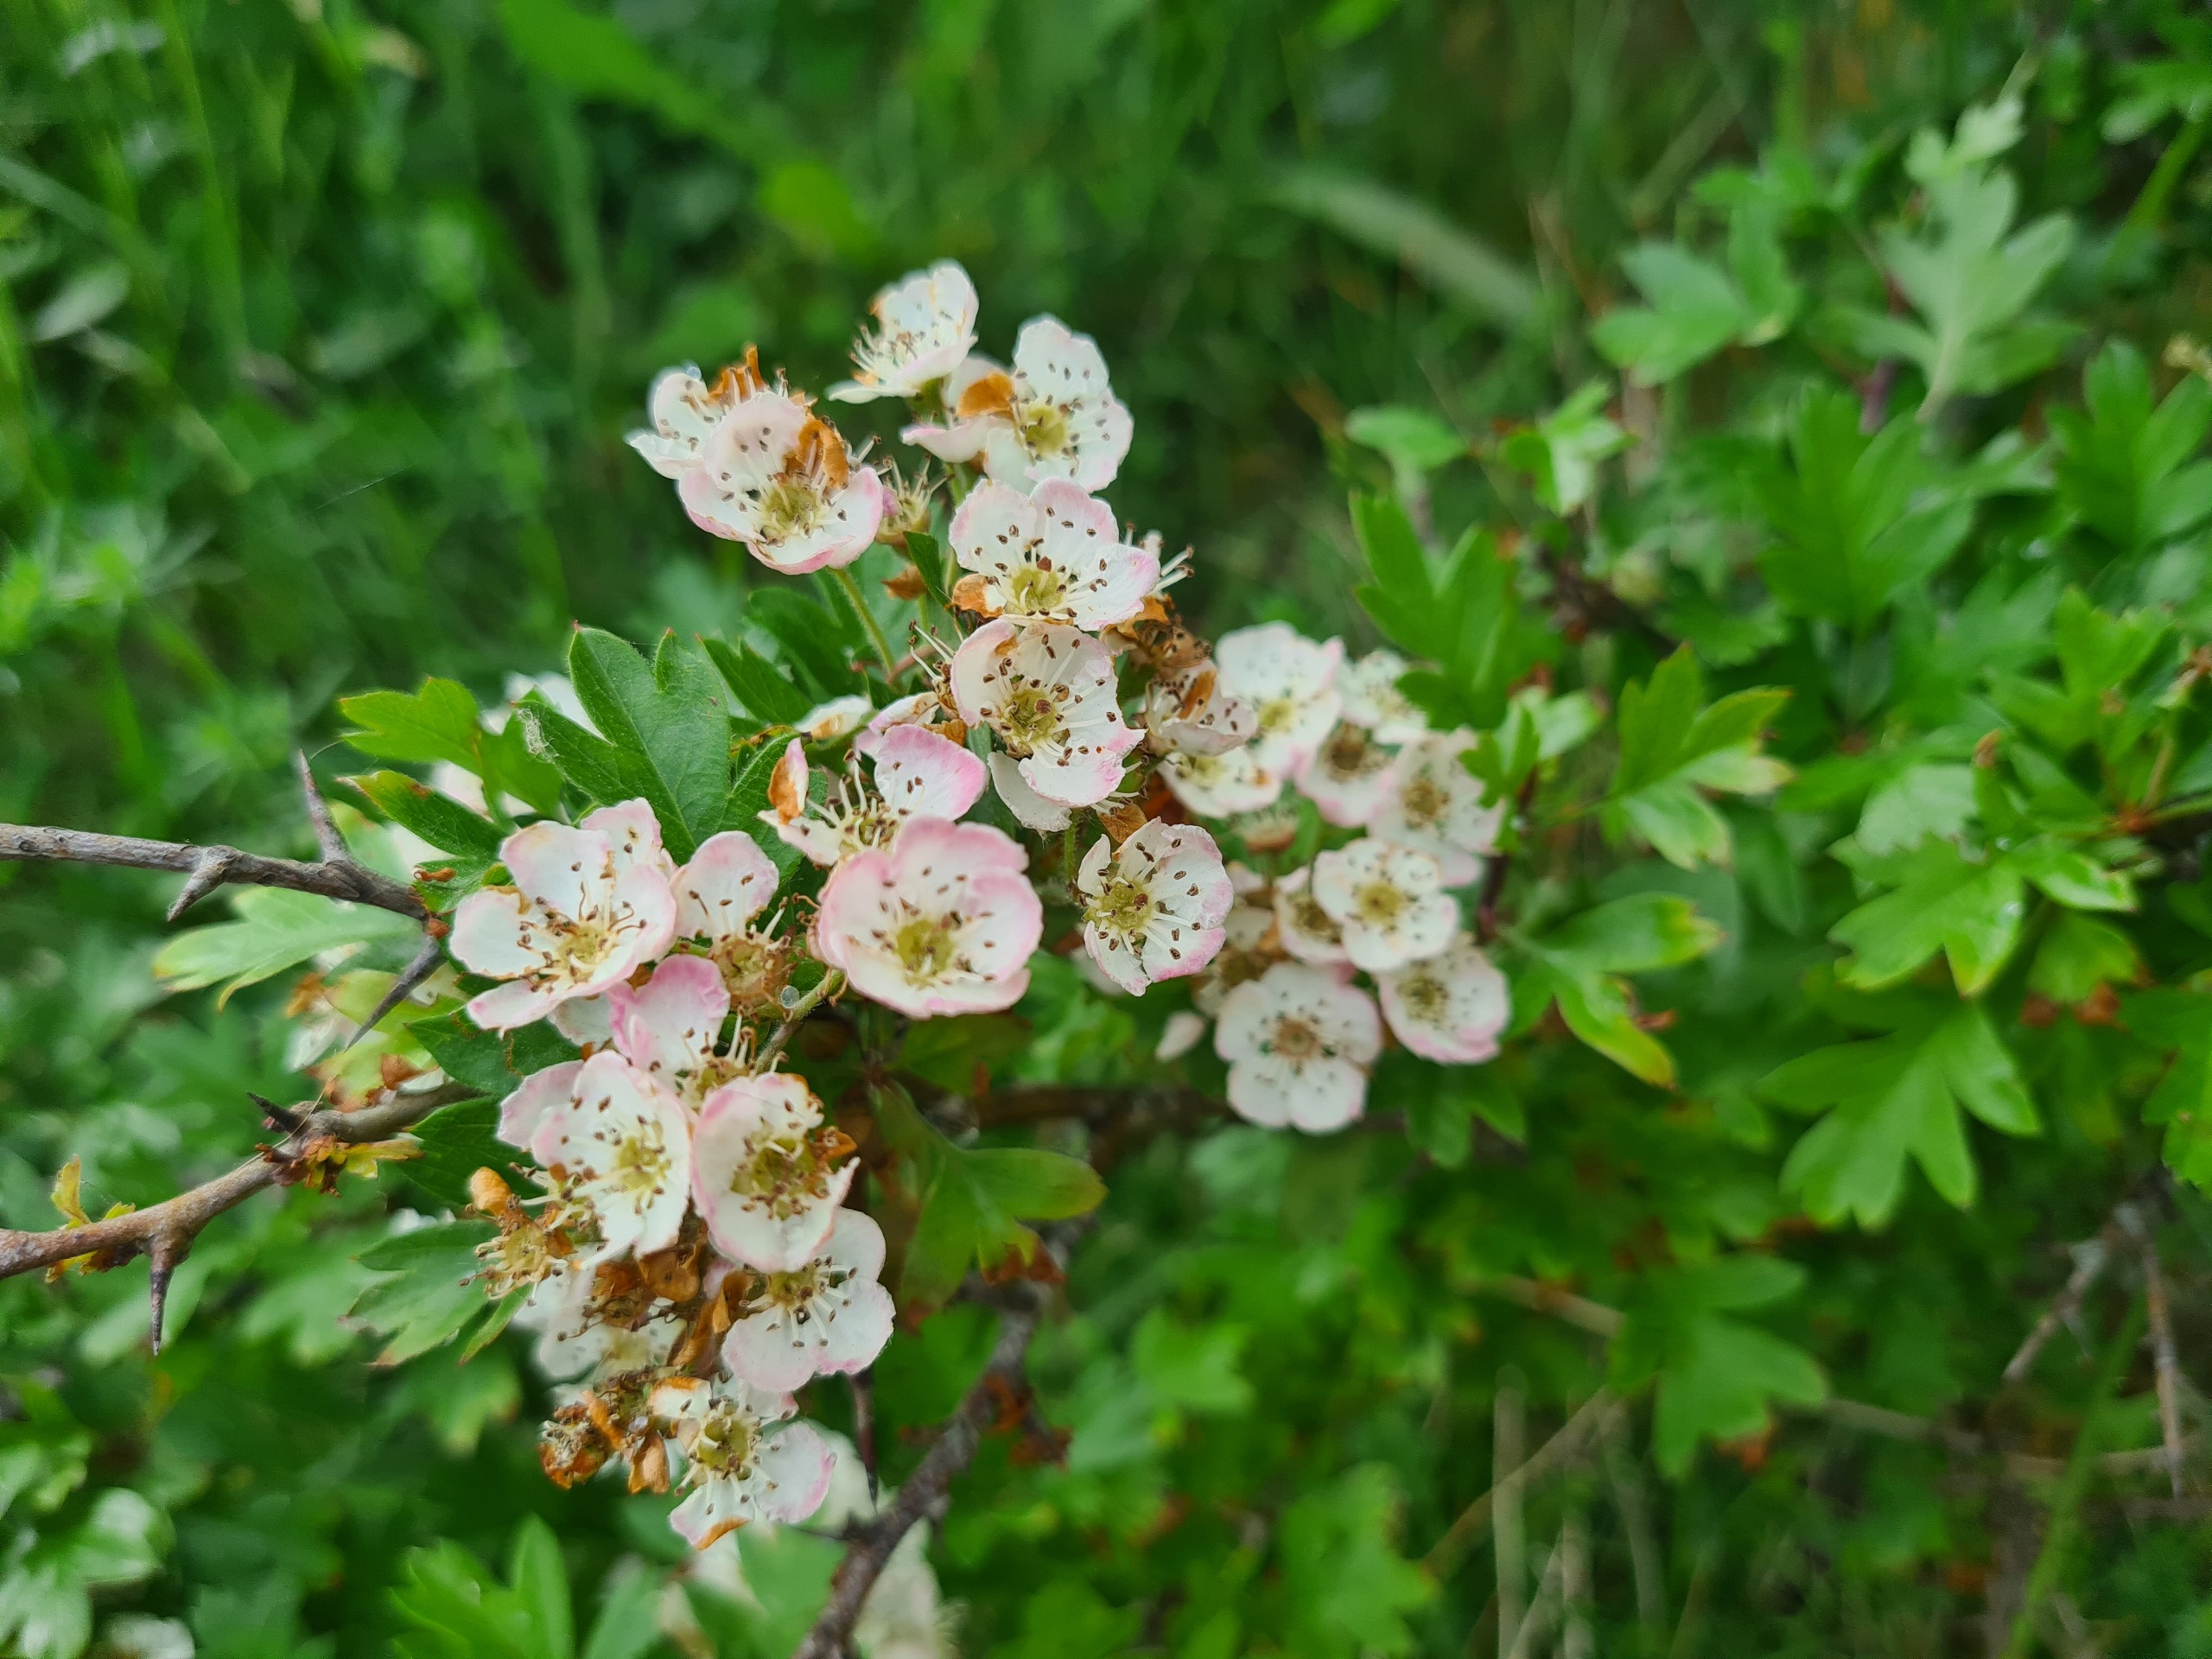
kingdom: Plantae
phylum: Tracheophyta
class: Magnoliopsida
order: Rosales
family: Rosaceae
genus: Crataegus
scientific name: Crataegus monogyna
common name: Engriflet hvidtjørn
